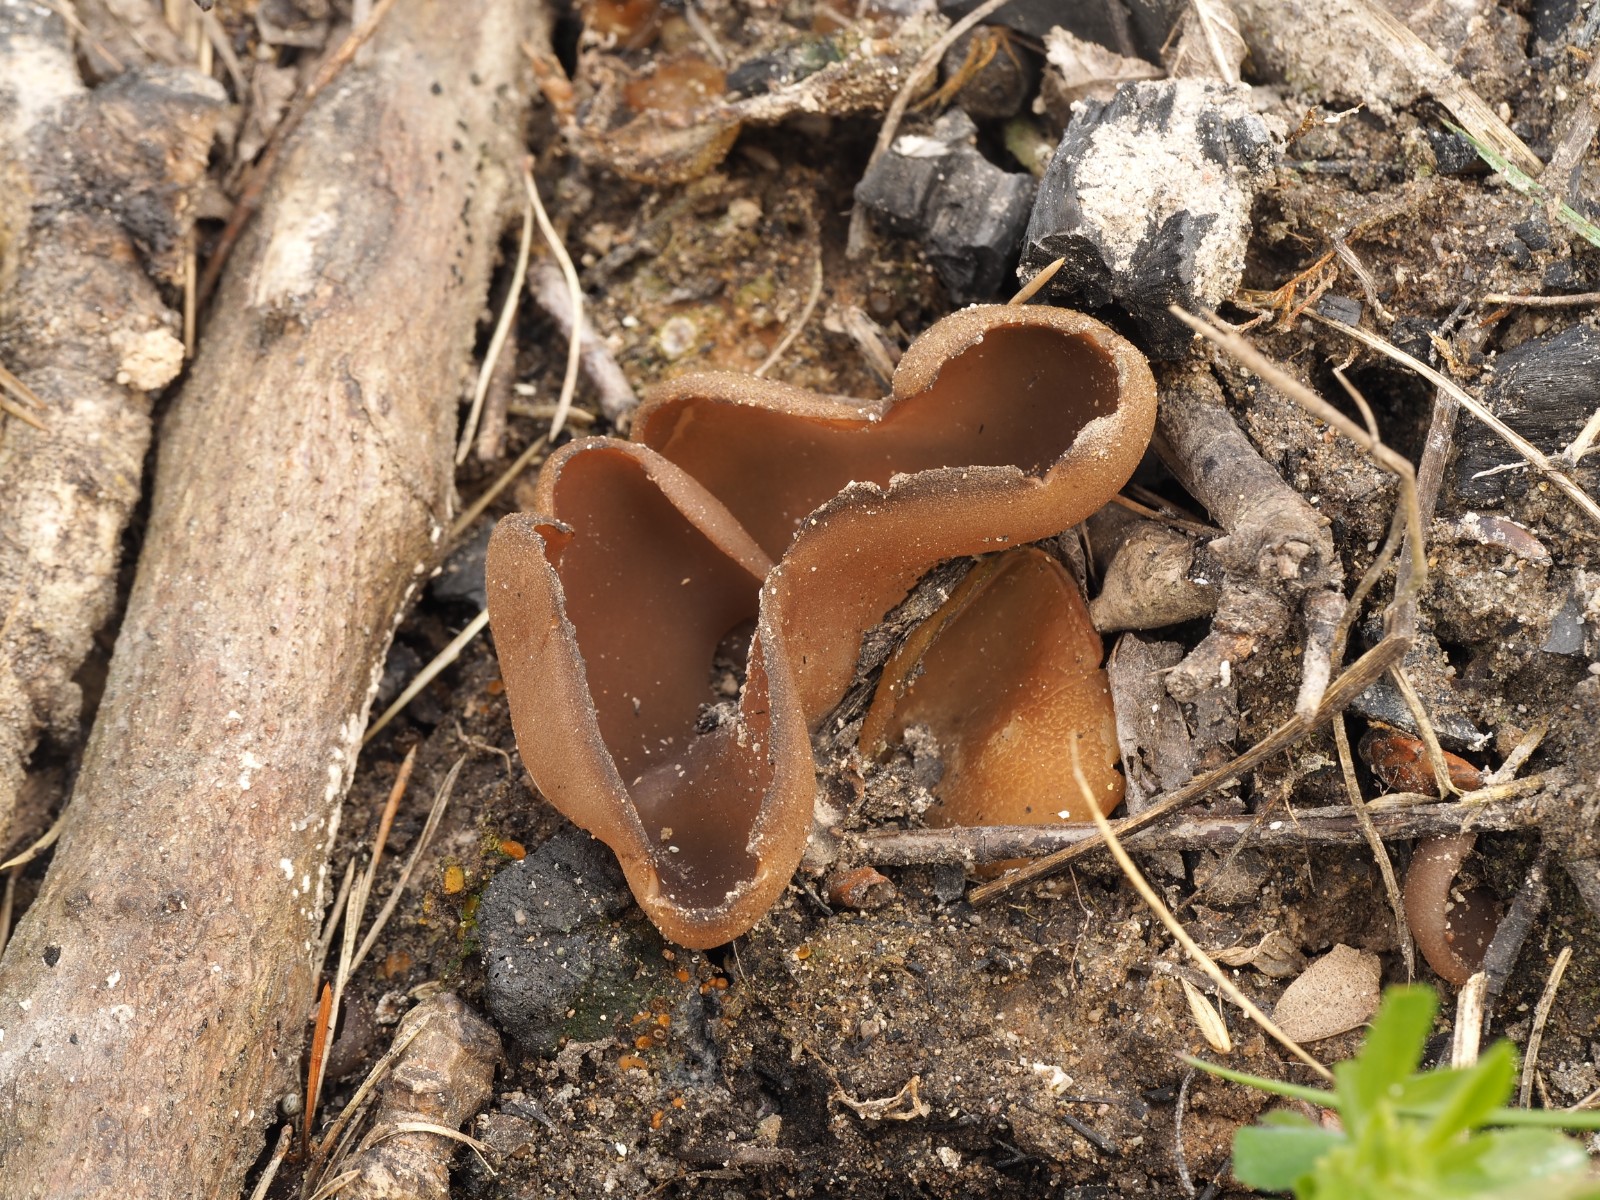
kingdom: Fungi
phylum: Ascomycota
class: Pezizomycetes
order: Pezizales
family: Pezizaceae
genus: Daleomyces
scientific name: Daleomyces petersii
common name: brandplet-bægersvamp
